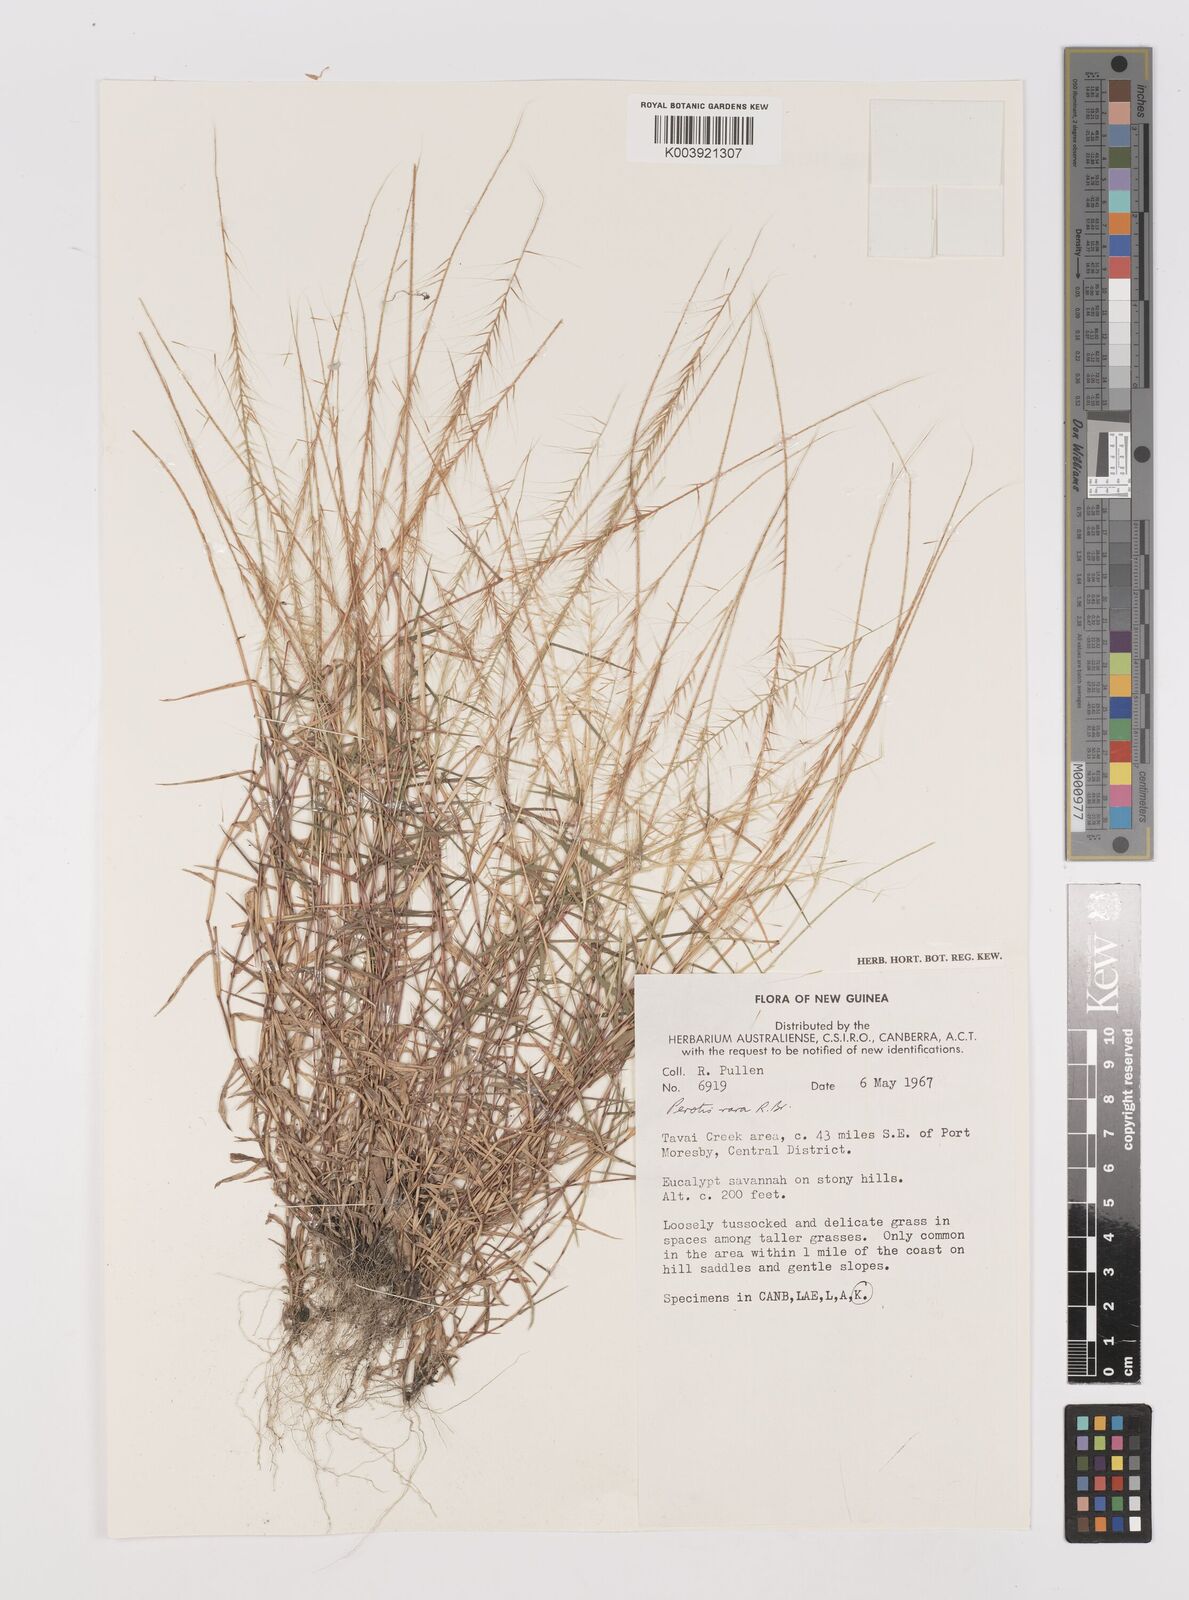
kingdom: Plantae
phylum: Tracheophyta
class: Liliopsida
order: Poales
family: Poaceae
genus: Perotis
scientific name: Perotis rara
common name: Comet grass
